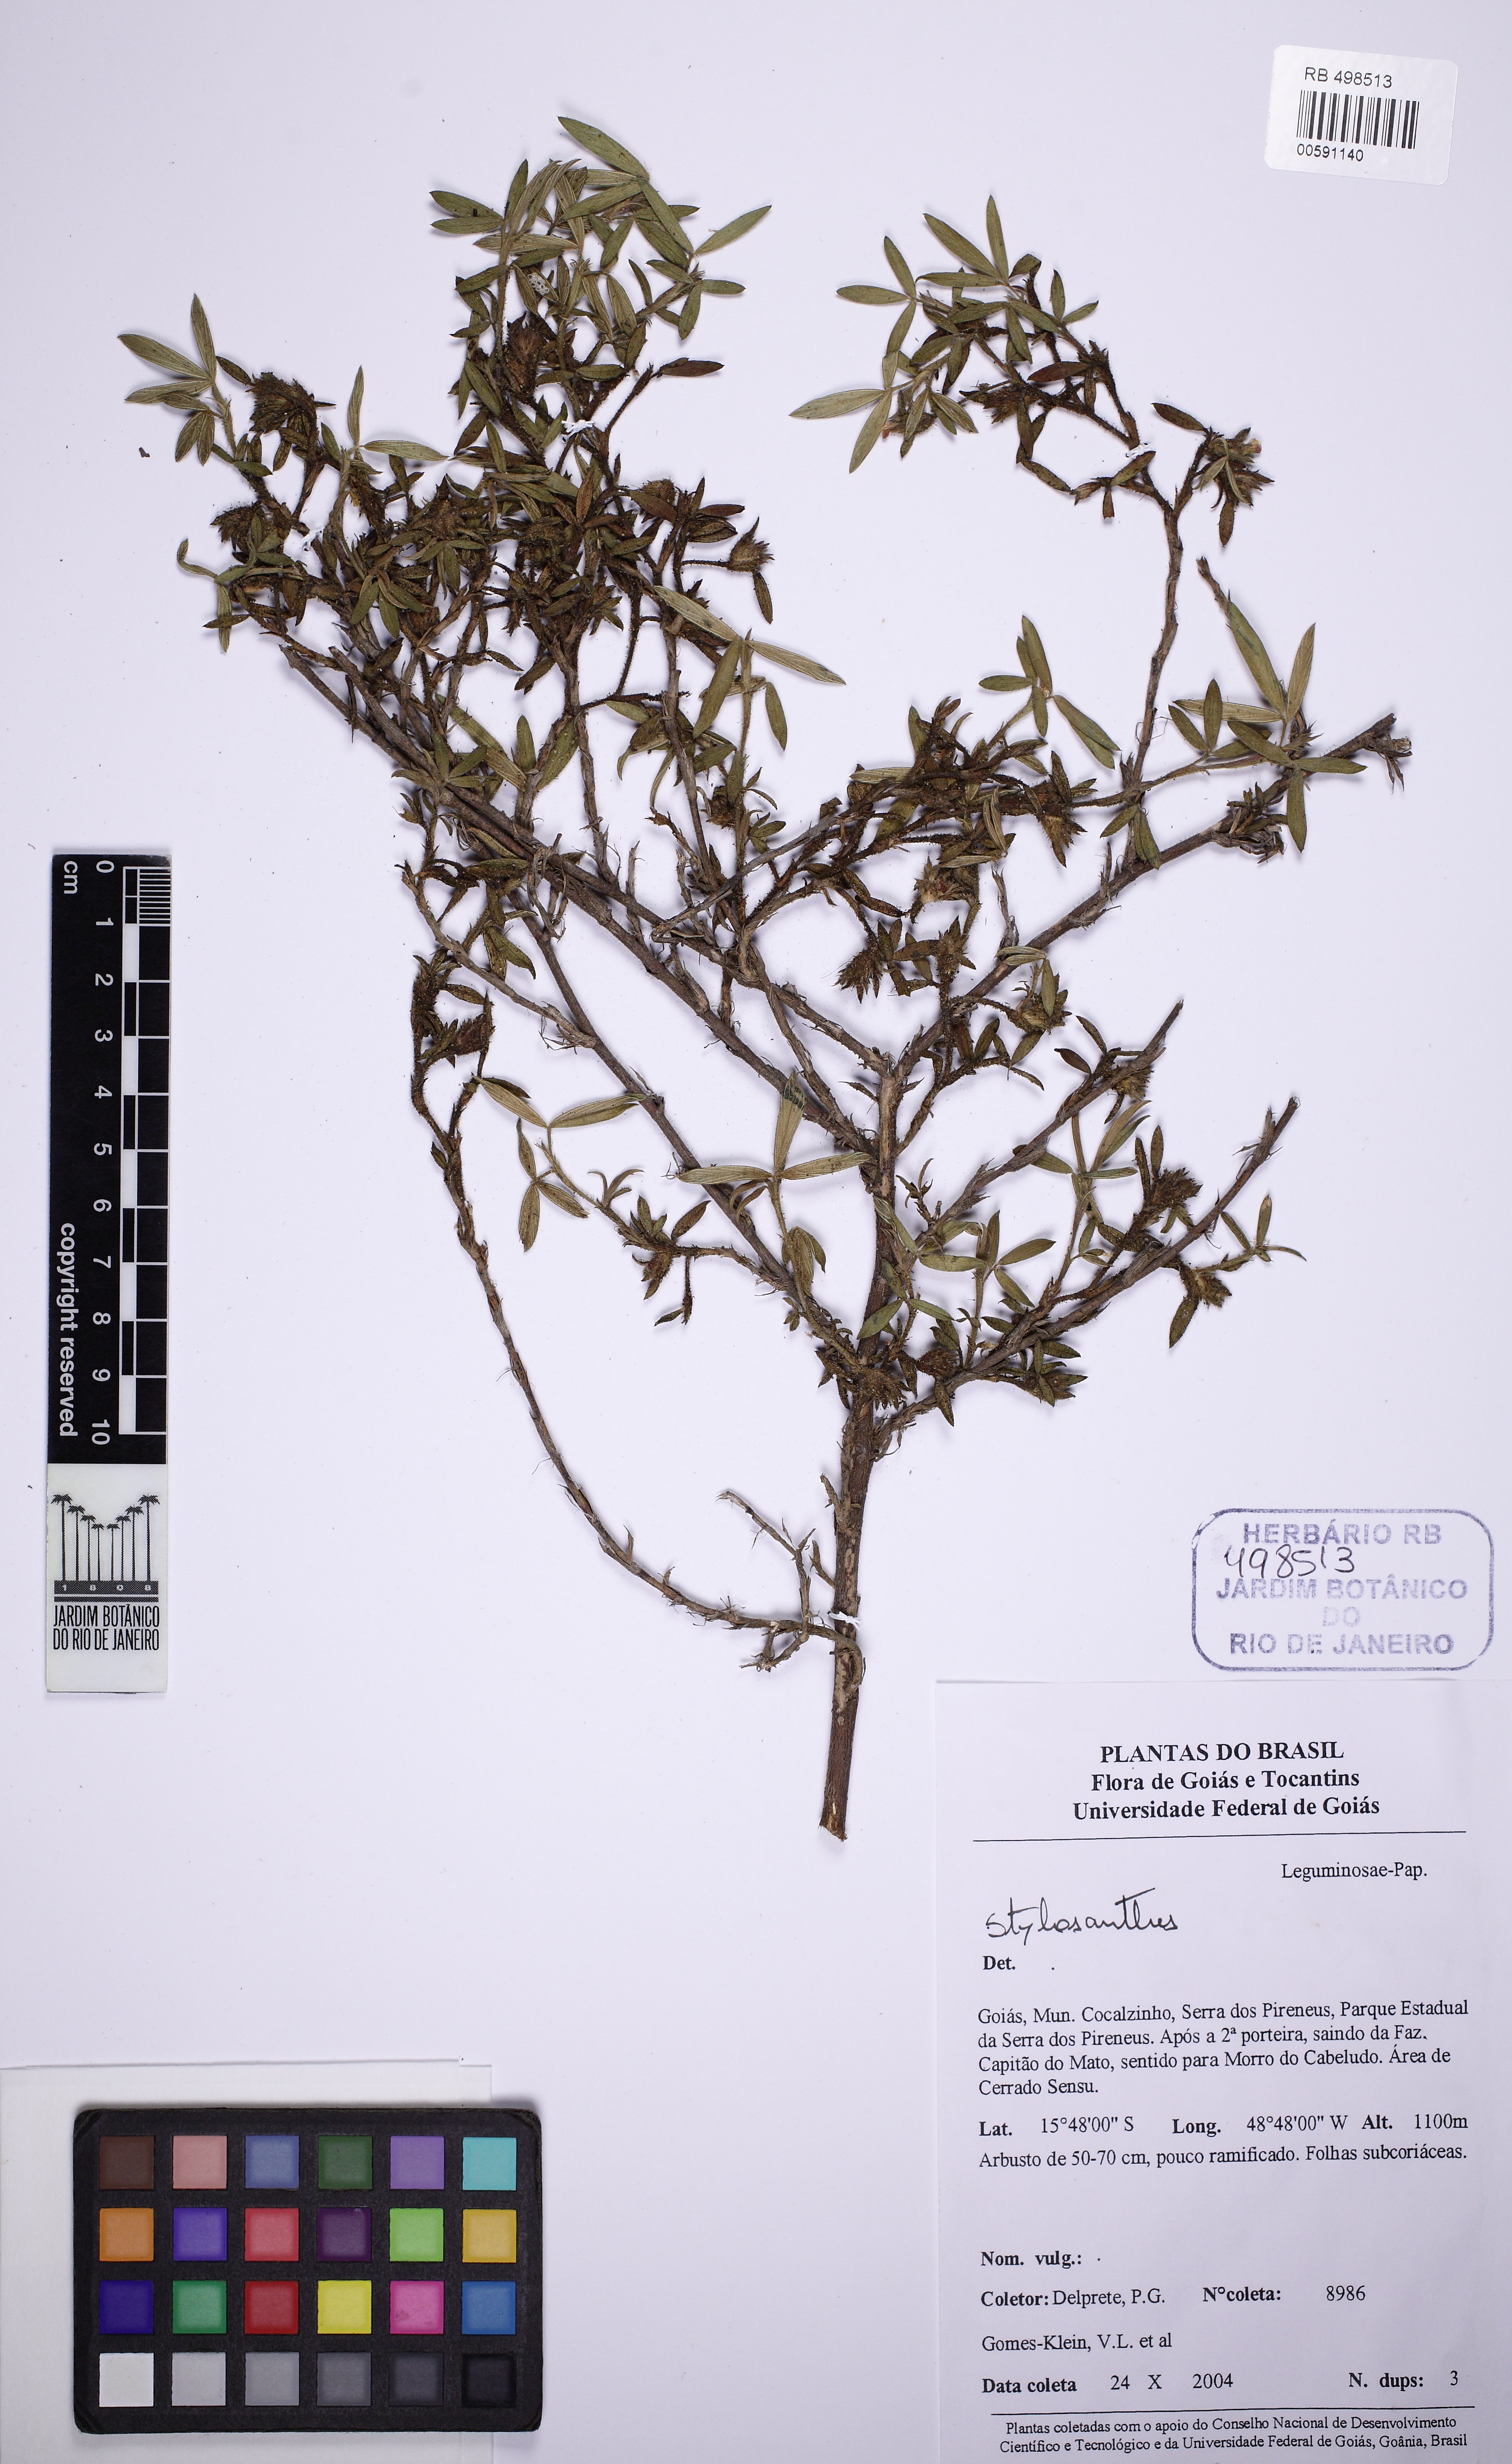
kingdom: Plantae
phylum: Tracheophyta
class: Magnoliopsida
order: Fabales
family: Fabaceae
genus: Stylosanthes
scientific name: Stylosanthes
